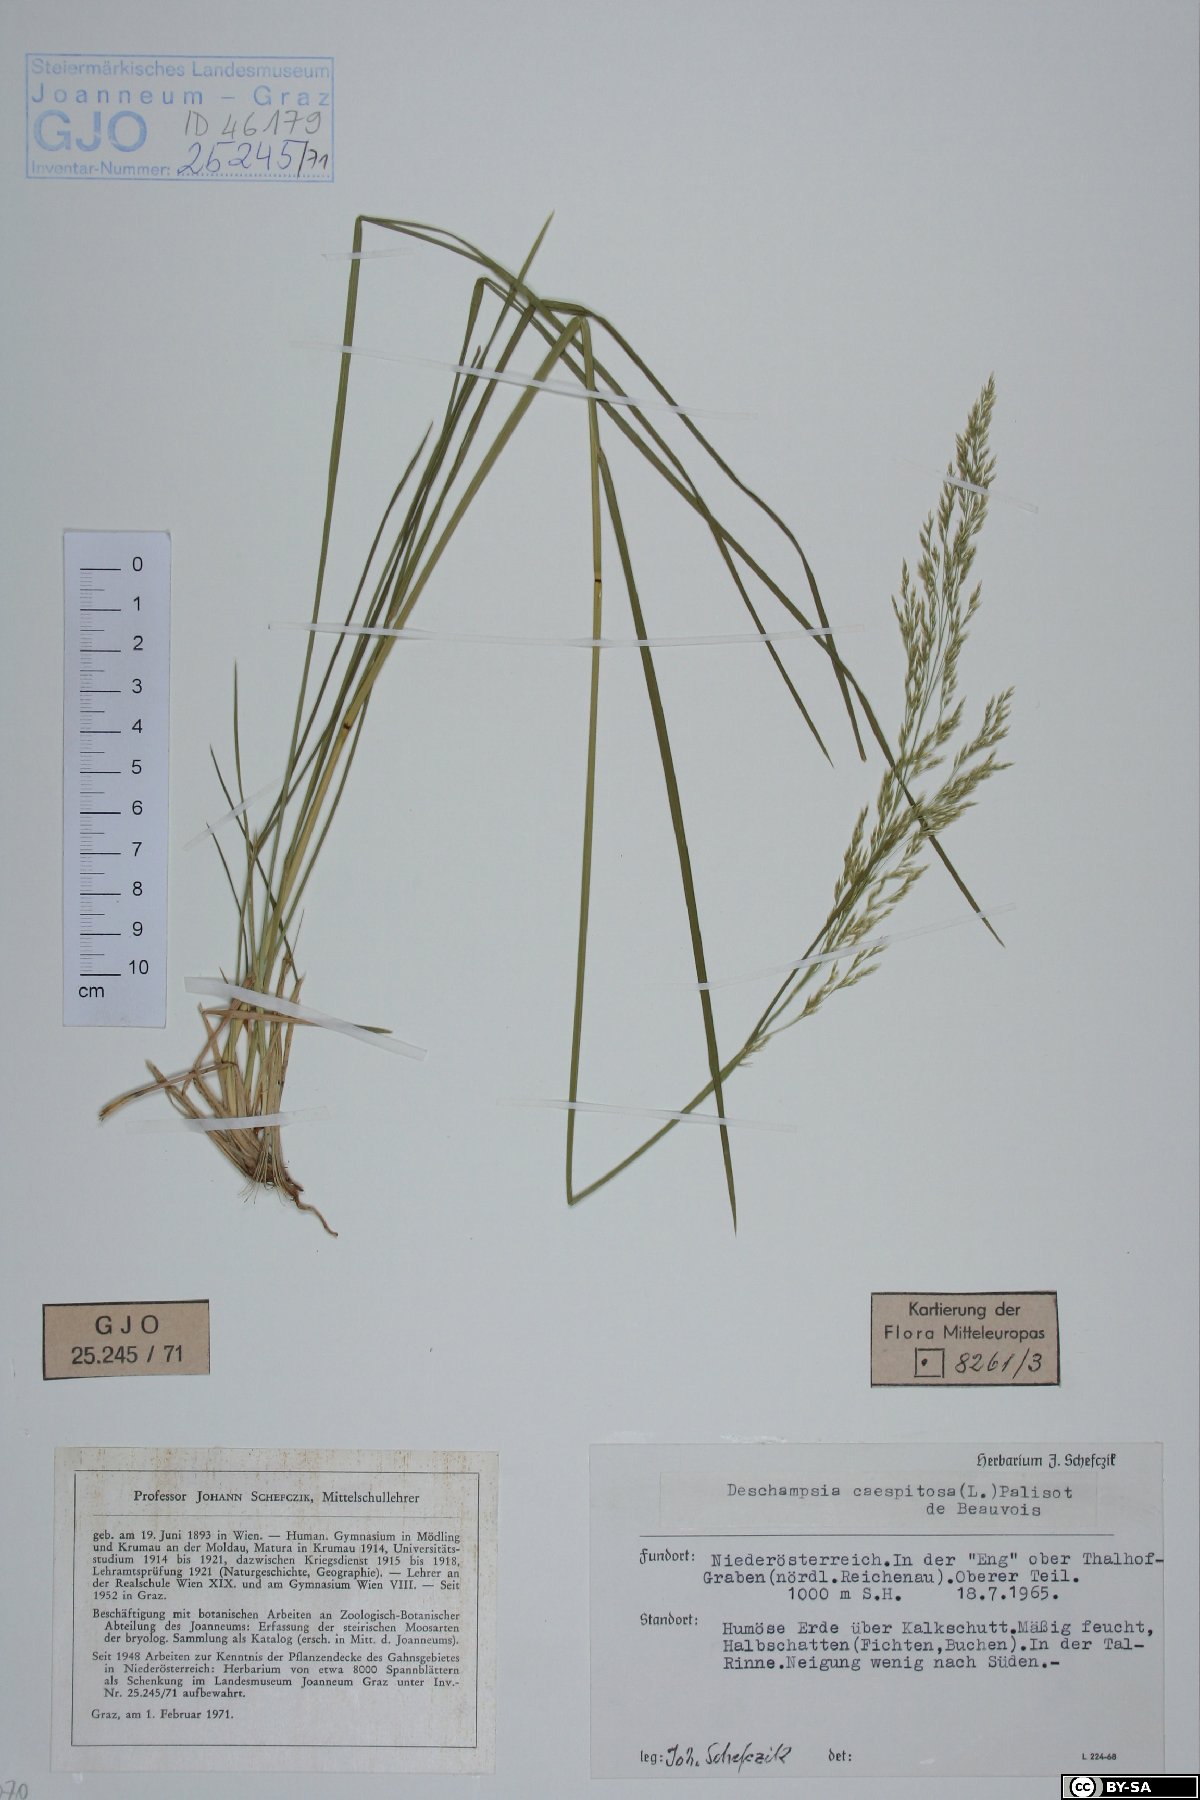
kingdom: Plantae
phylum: Tracheophyta
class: Liliopsida
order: Poales
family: Poaceae
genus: Deschampsia
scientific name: Deschampsia cespitosa
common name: Tufted hair-grass
